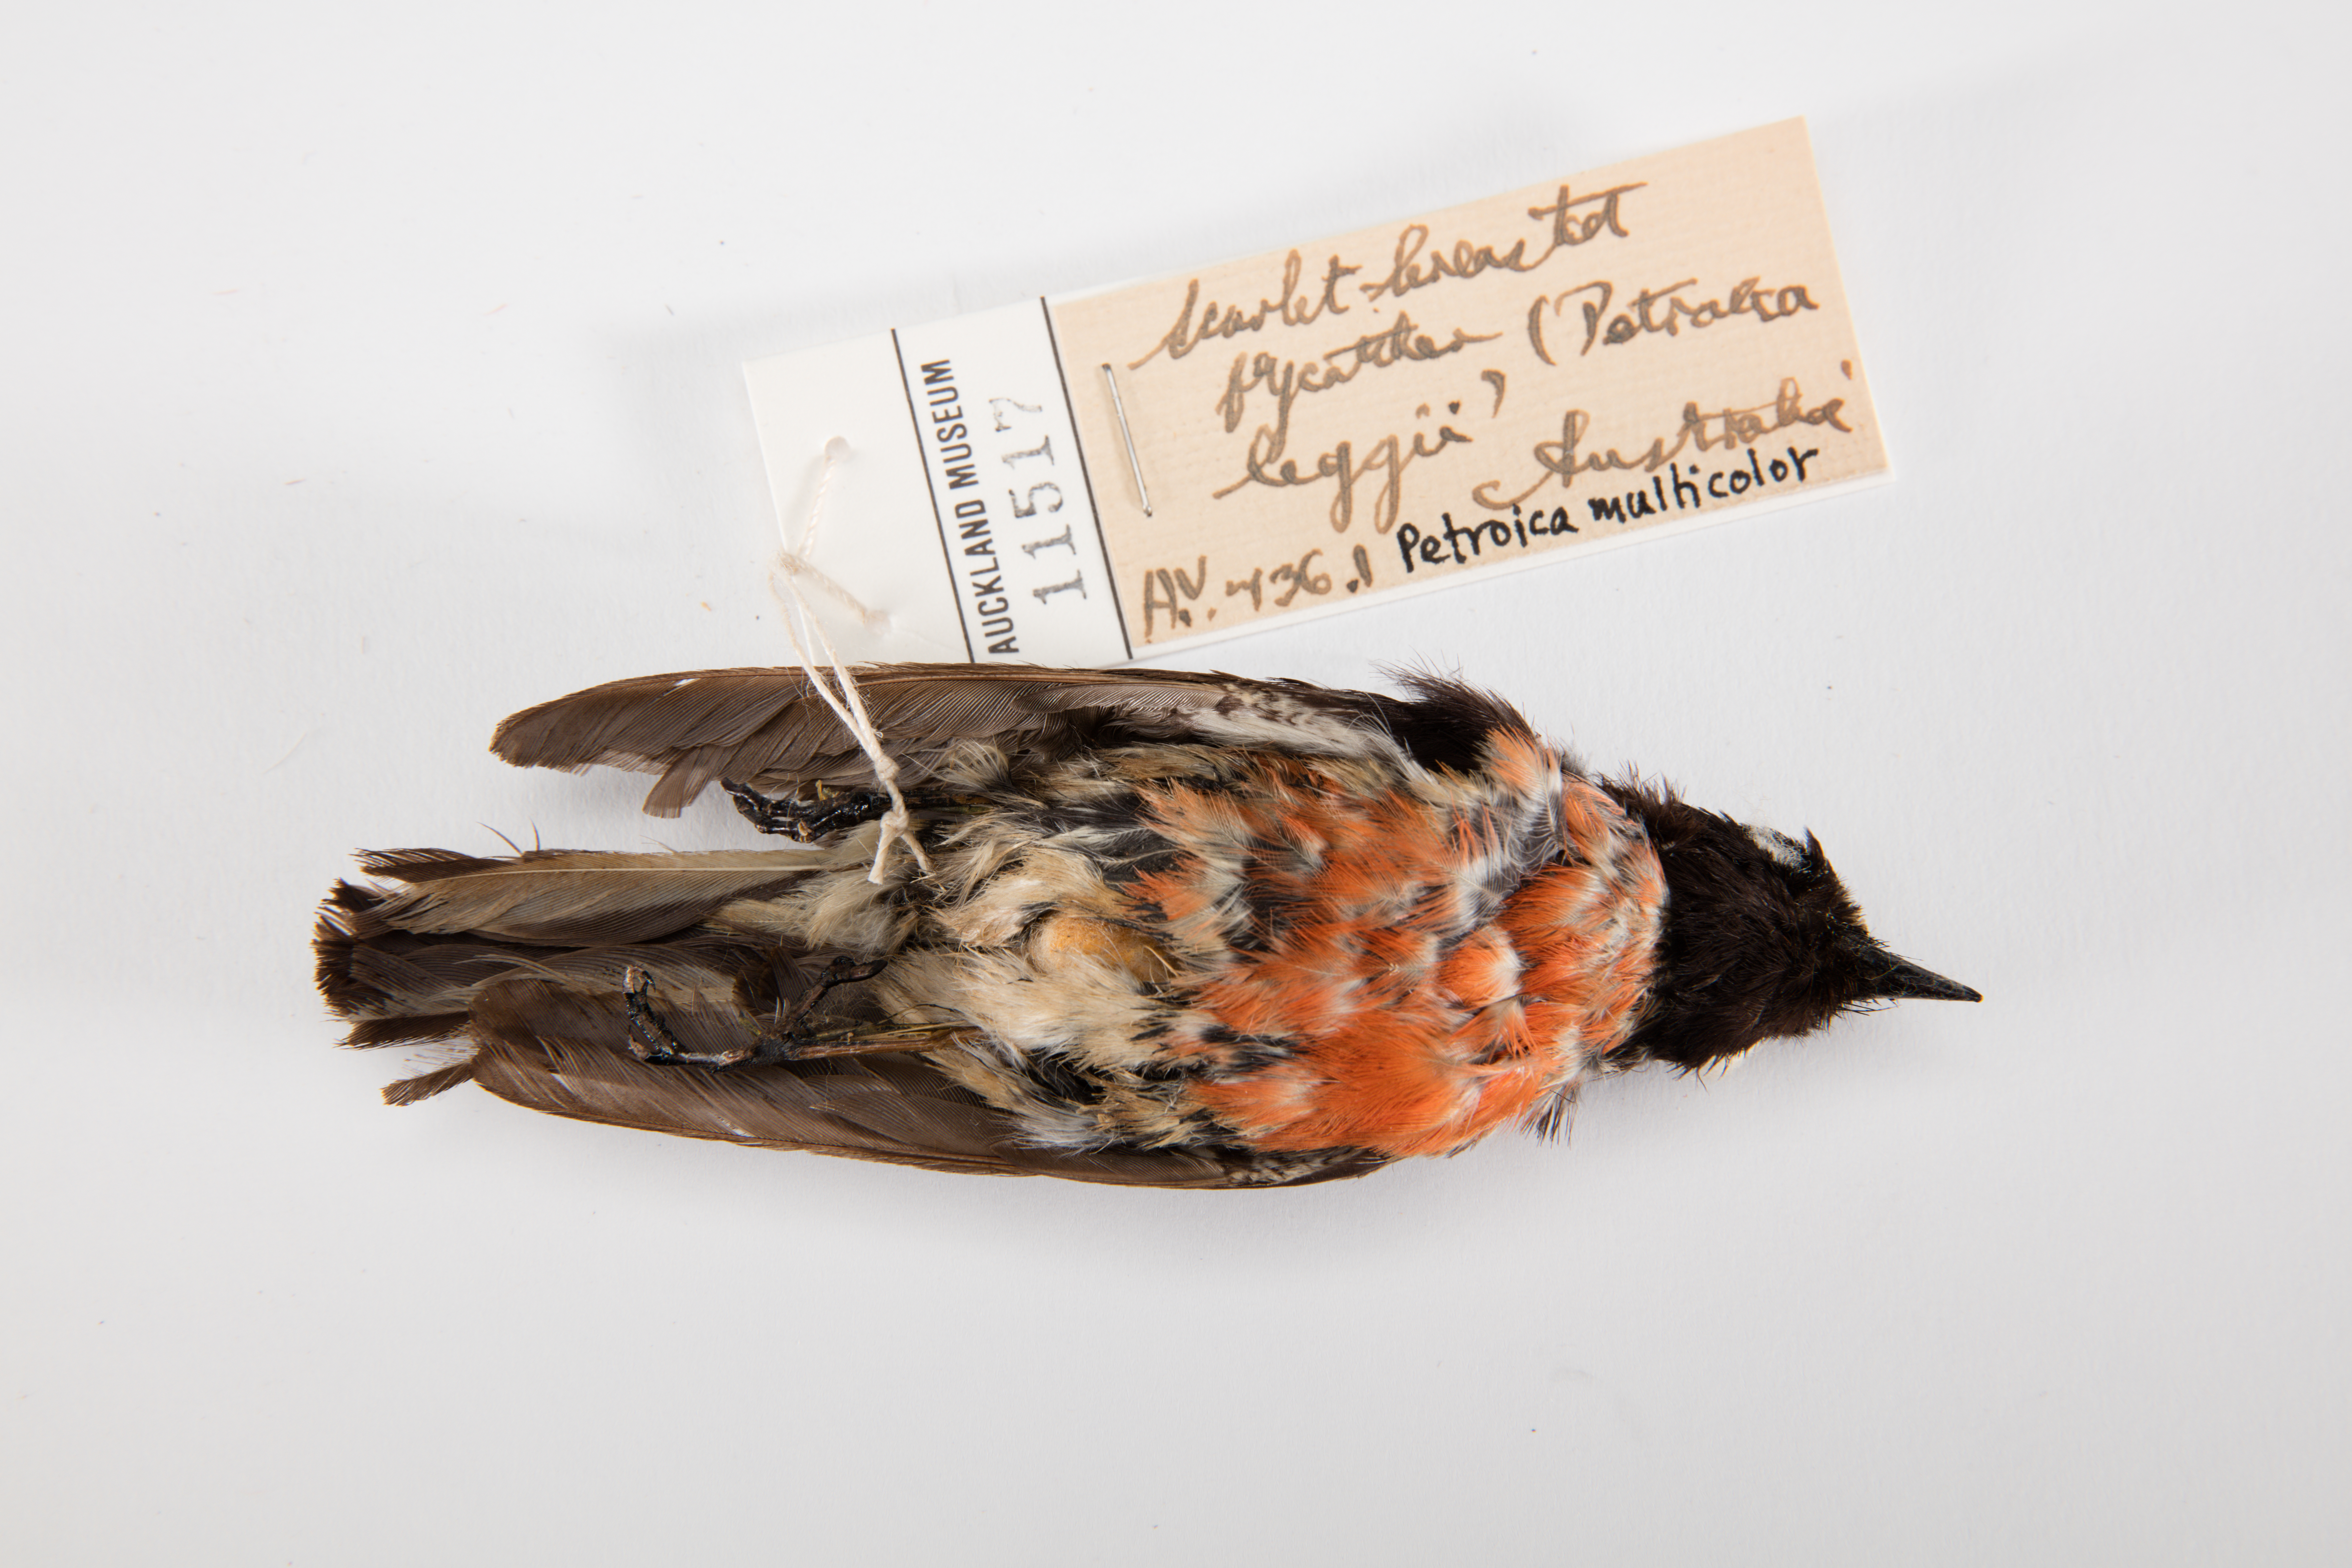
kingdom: Animalia
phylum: Chordata
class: Aves
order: Passeriformes
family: Petroicidae
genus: Petroica
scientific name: Petroica multicolor
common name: Pacific robin
